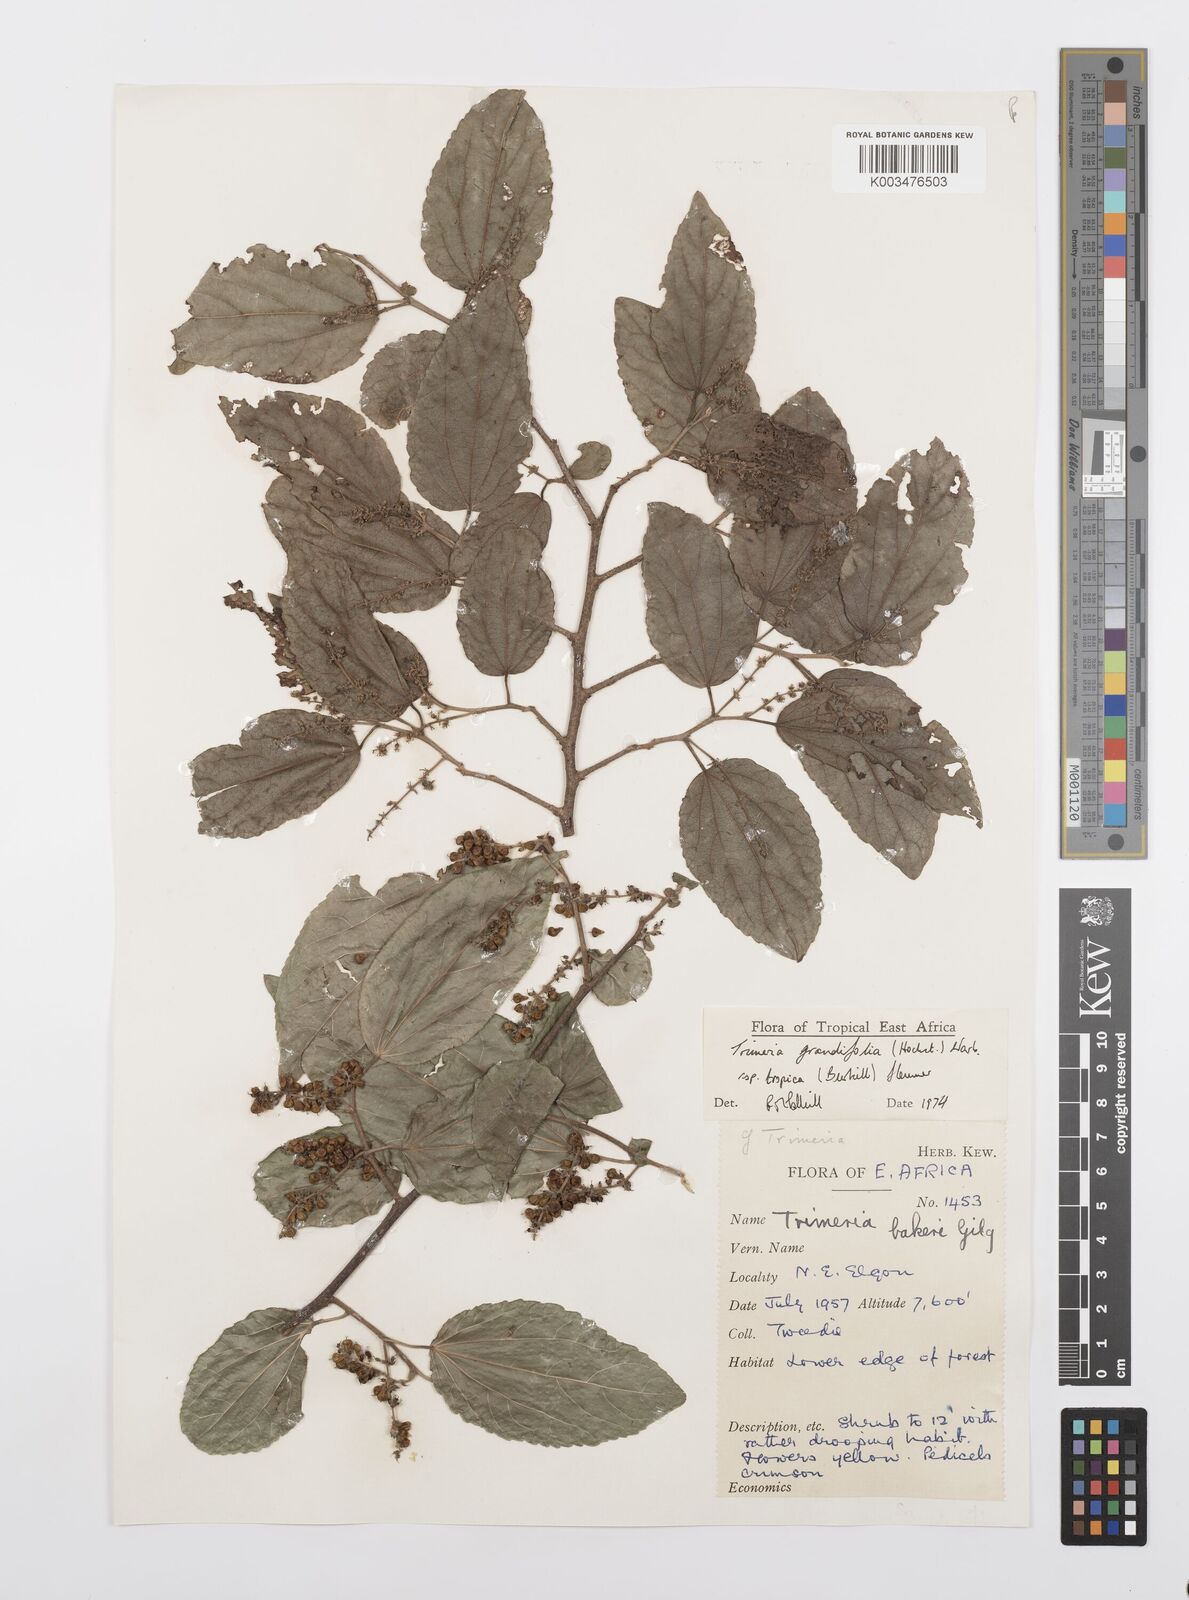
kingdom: Plantae
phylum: Tracheophyta
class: Magnoliopsida
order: Malpighiales
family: Salicaceae
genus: Trimeria
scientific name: Trimeria grandifolia
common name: Wild mulberry
